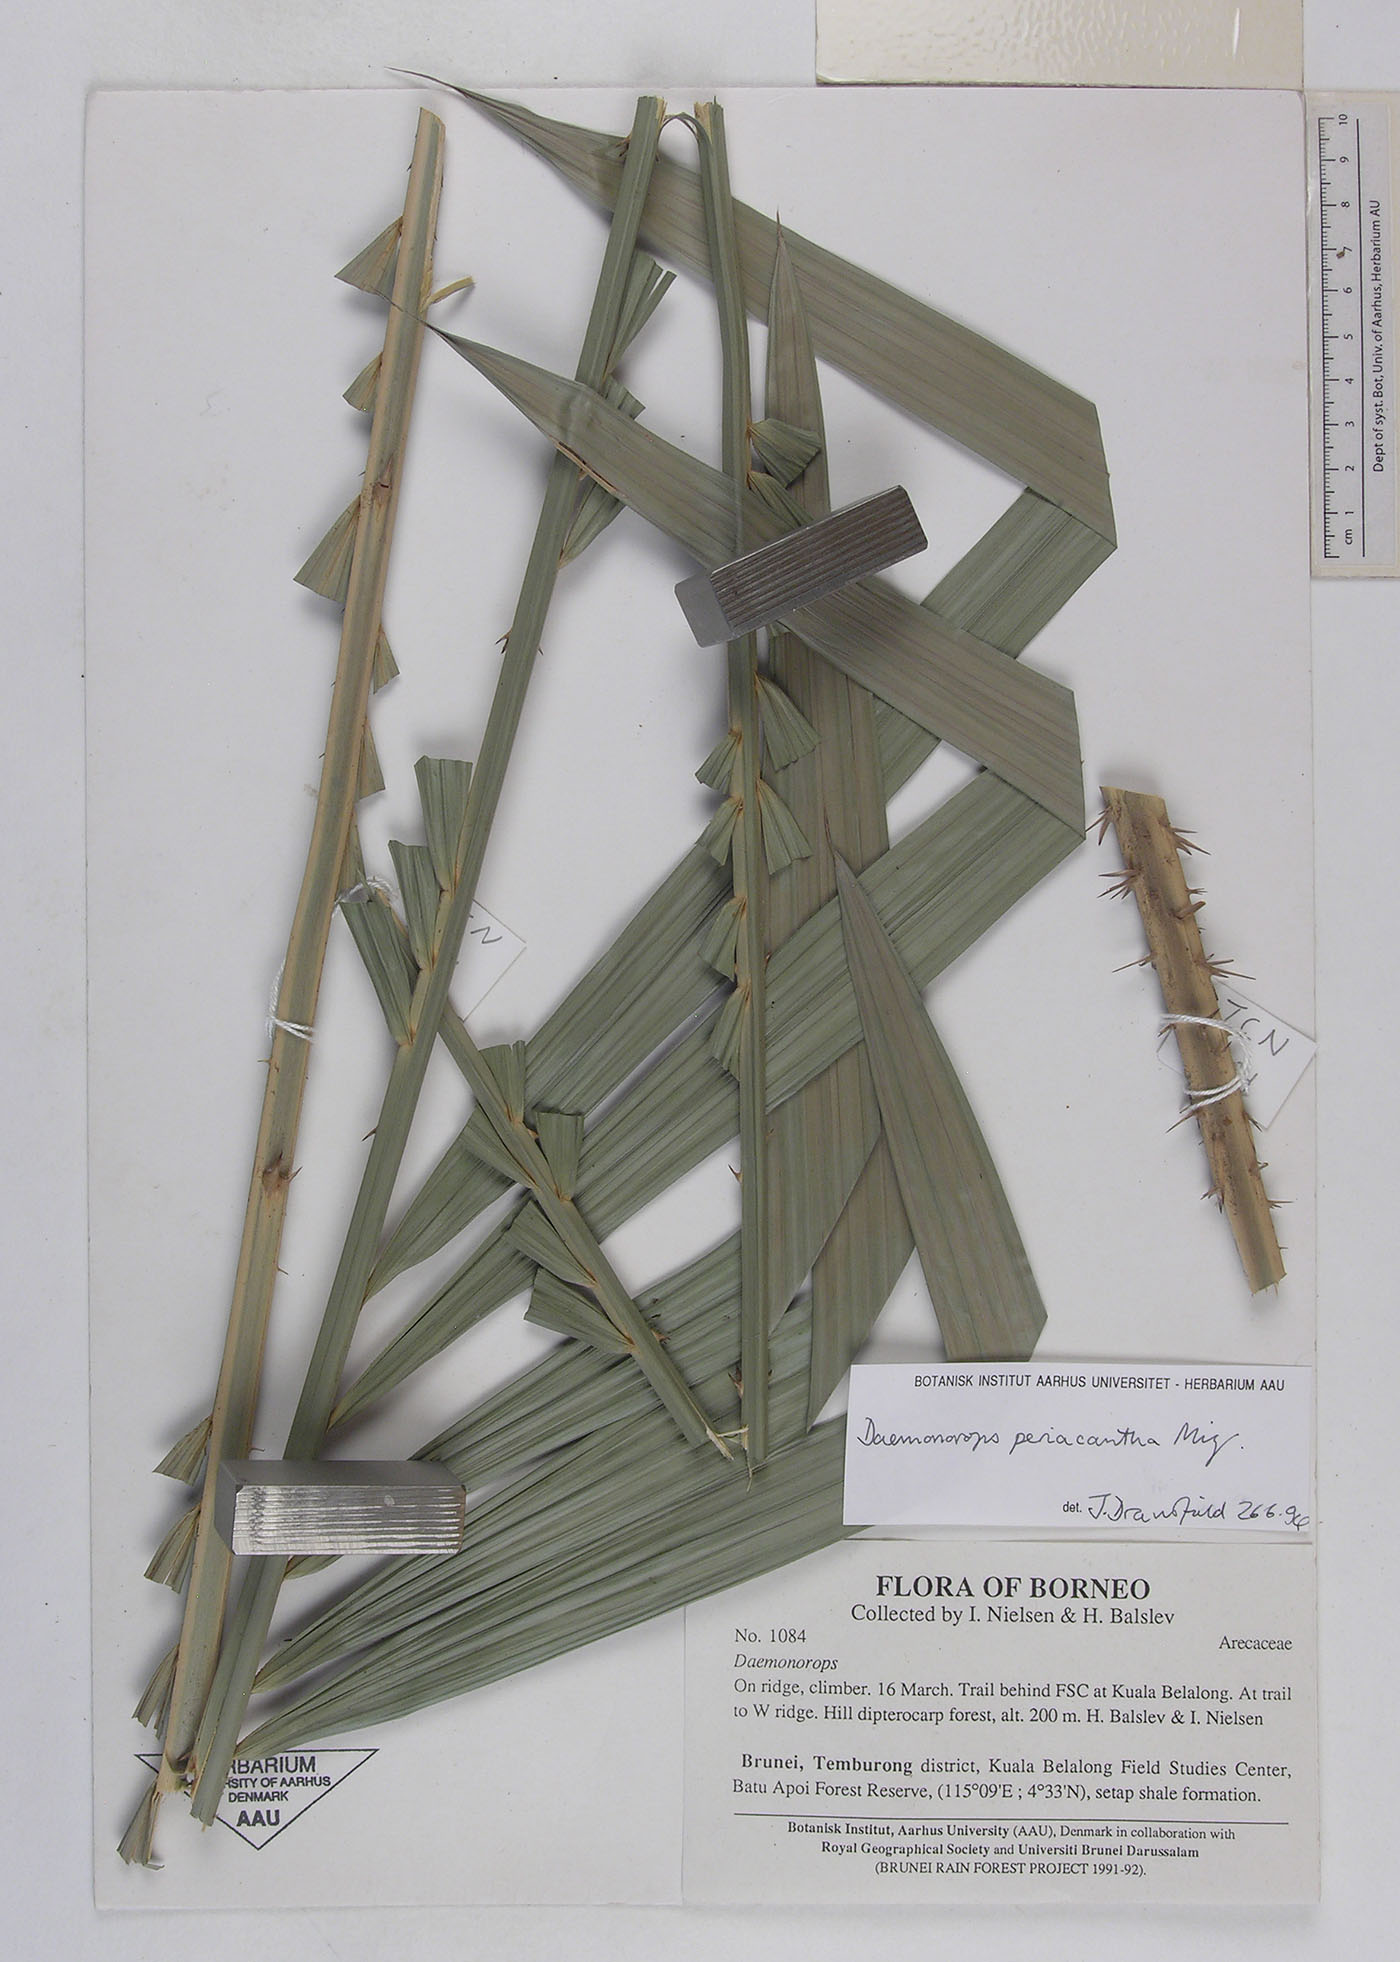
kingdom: Plantae
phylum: Tracheophyta
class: Liliopsida
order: Arecales
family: Arecaceae
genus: Calamus
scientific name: Calamus periacanthus
